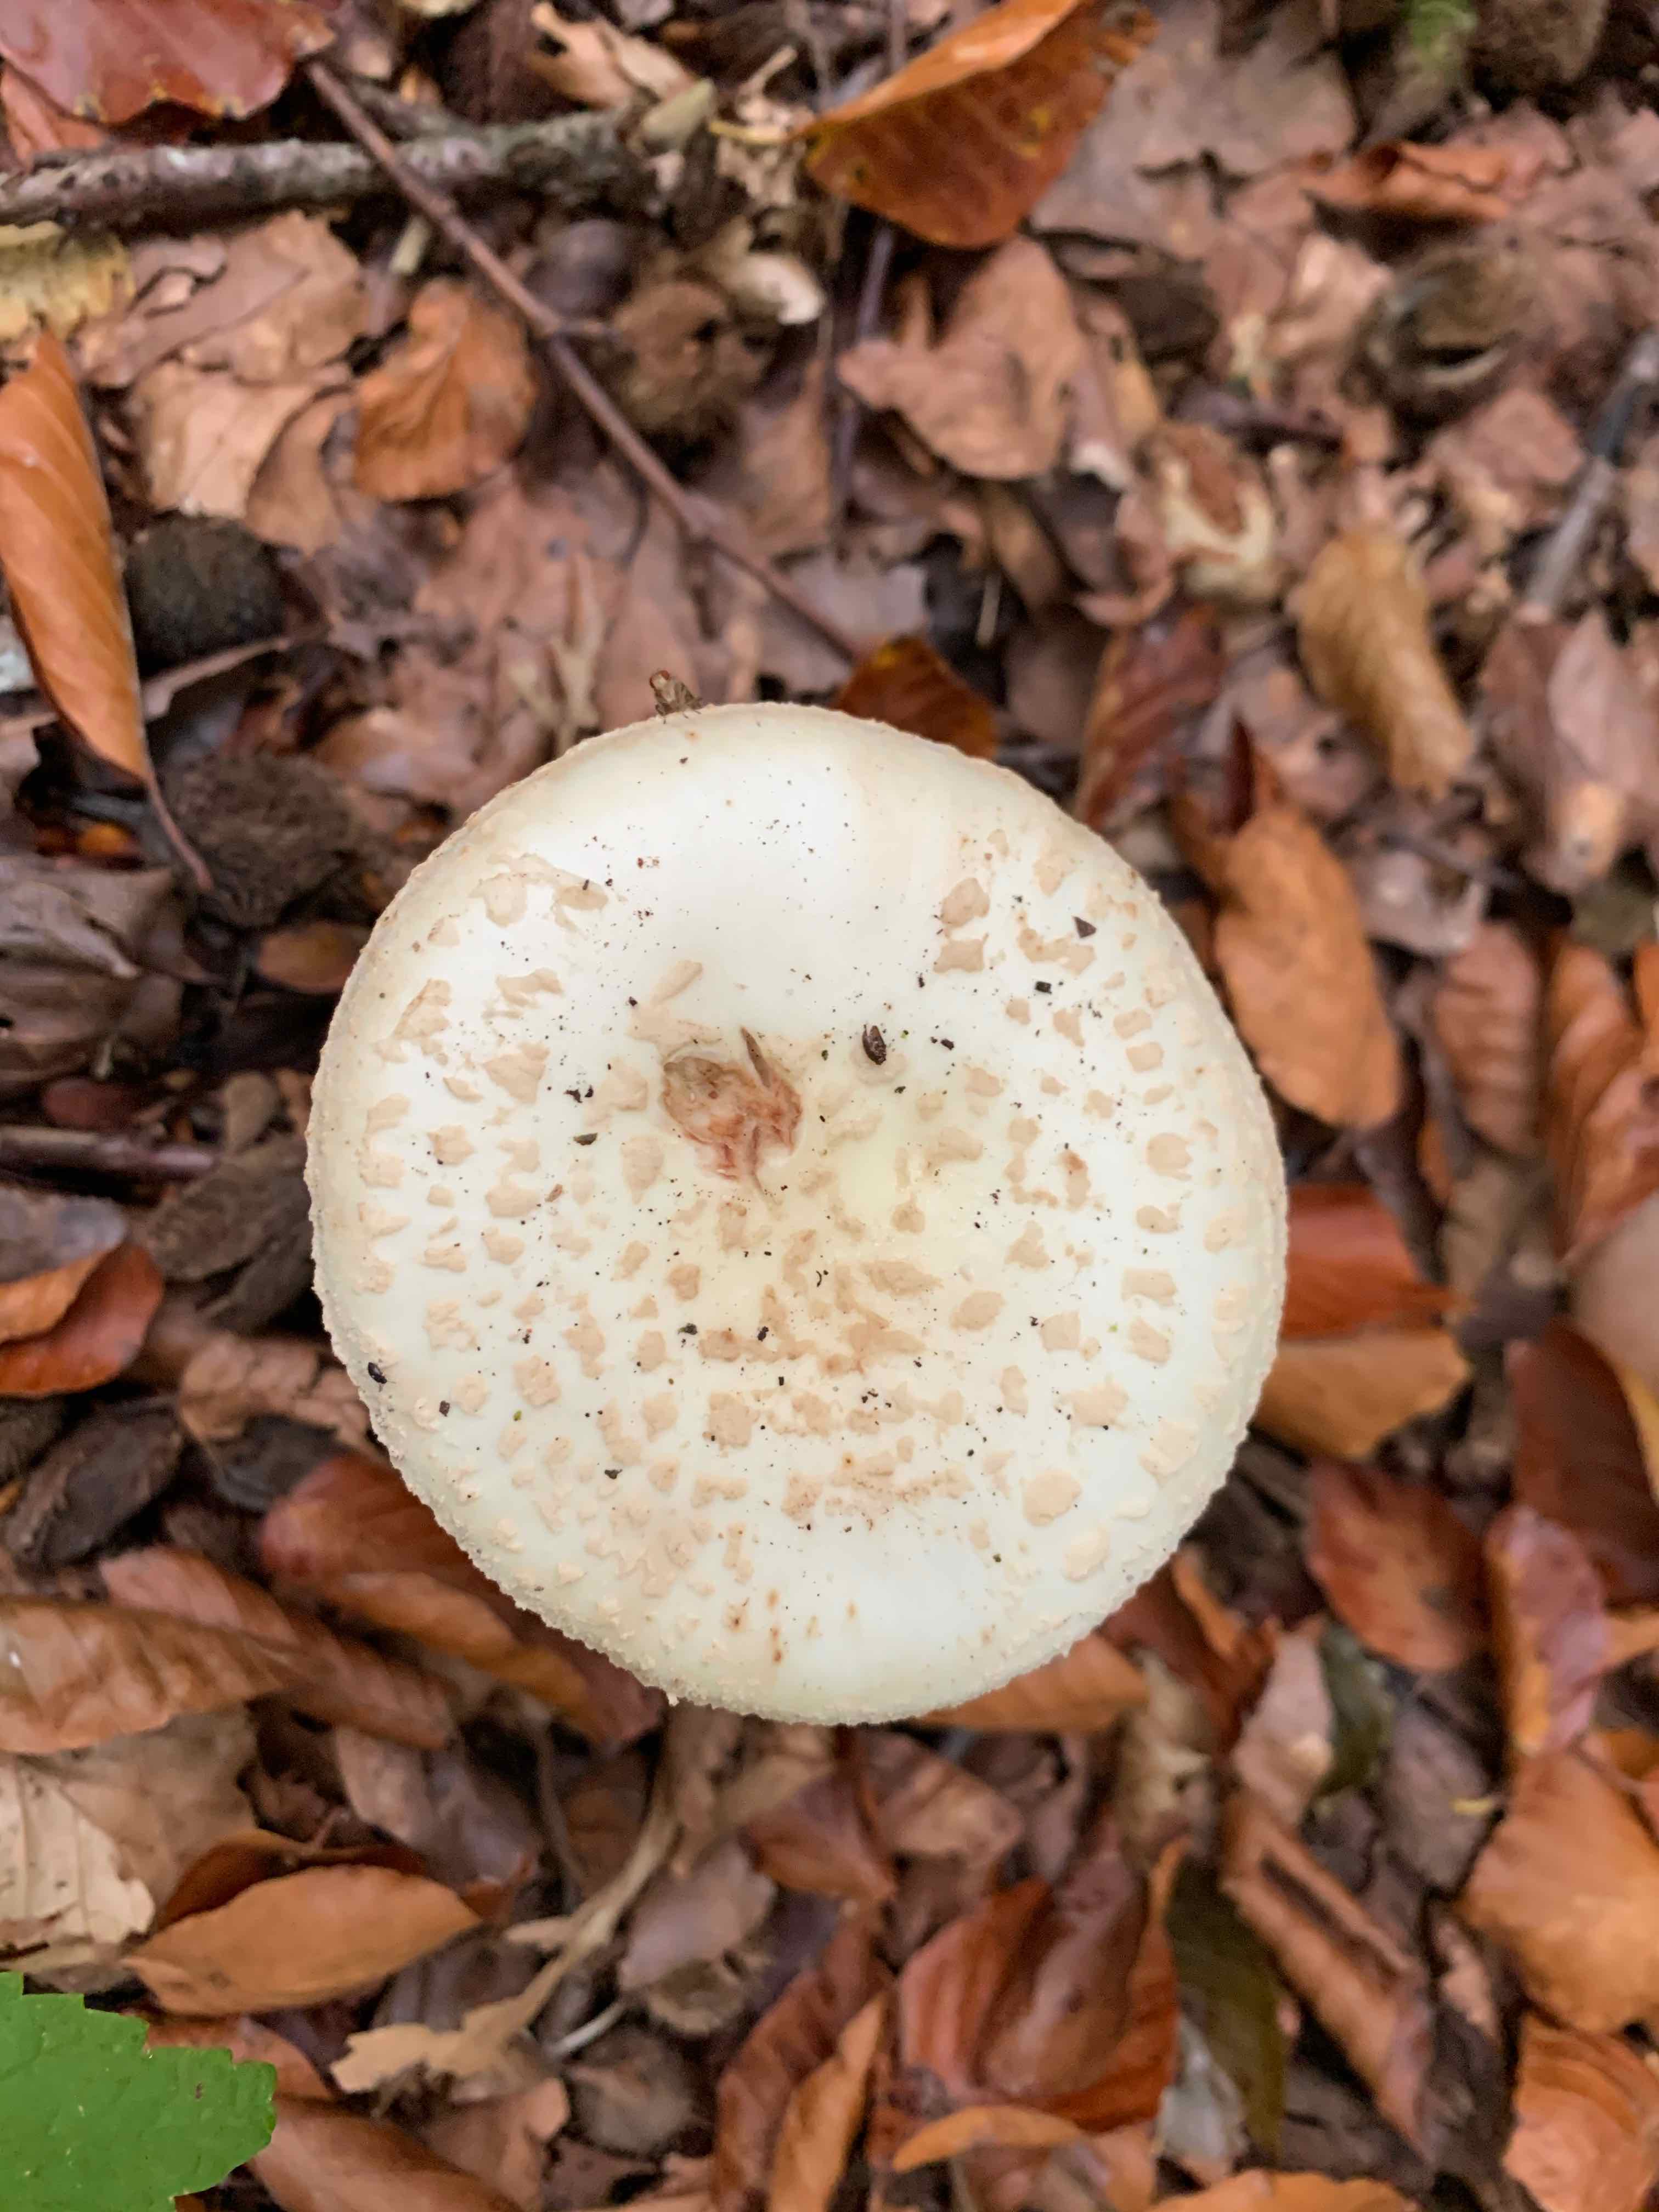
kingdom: Fungi
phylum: Basidiomycota
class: Agaricomycetes
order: Agaricales
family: Amanitaceae
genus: Amanita
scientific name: Amanita citrina
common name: kugleknoldet fluesvamp
